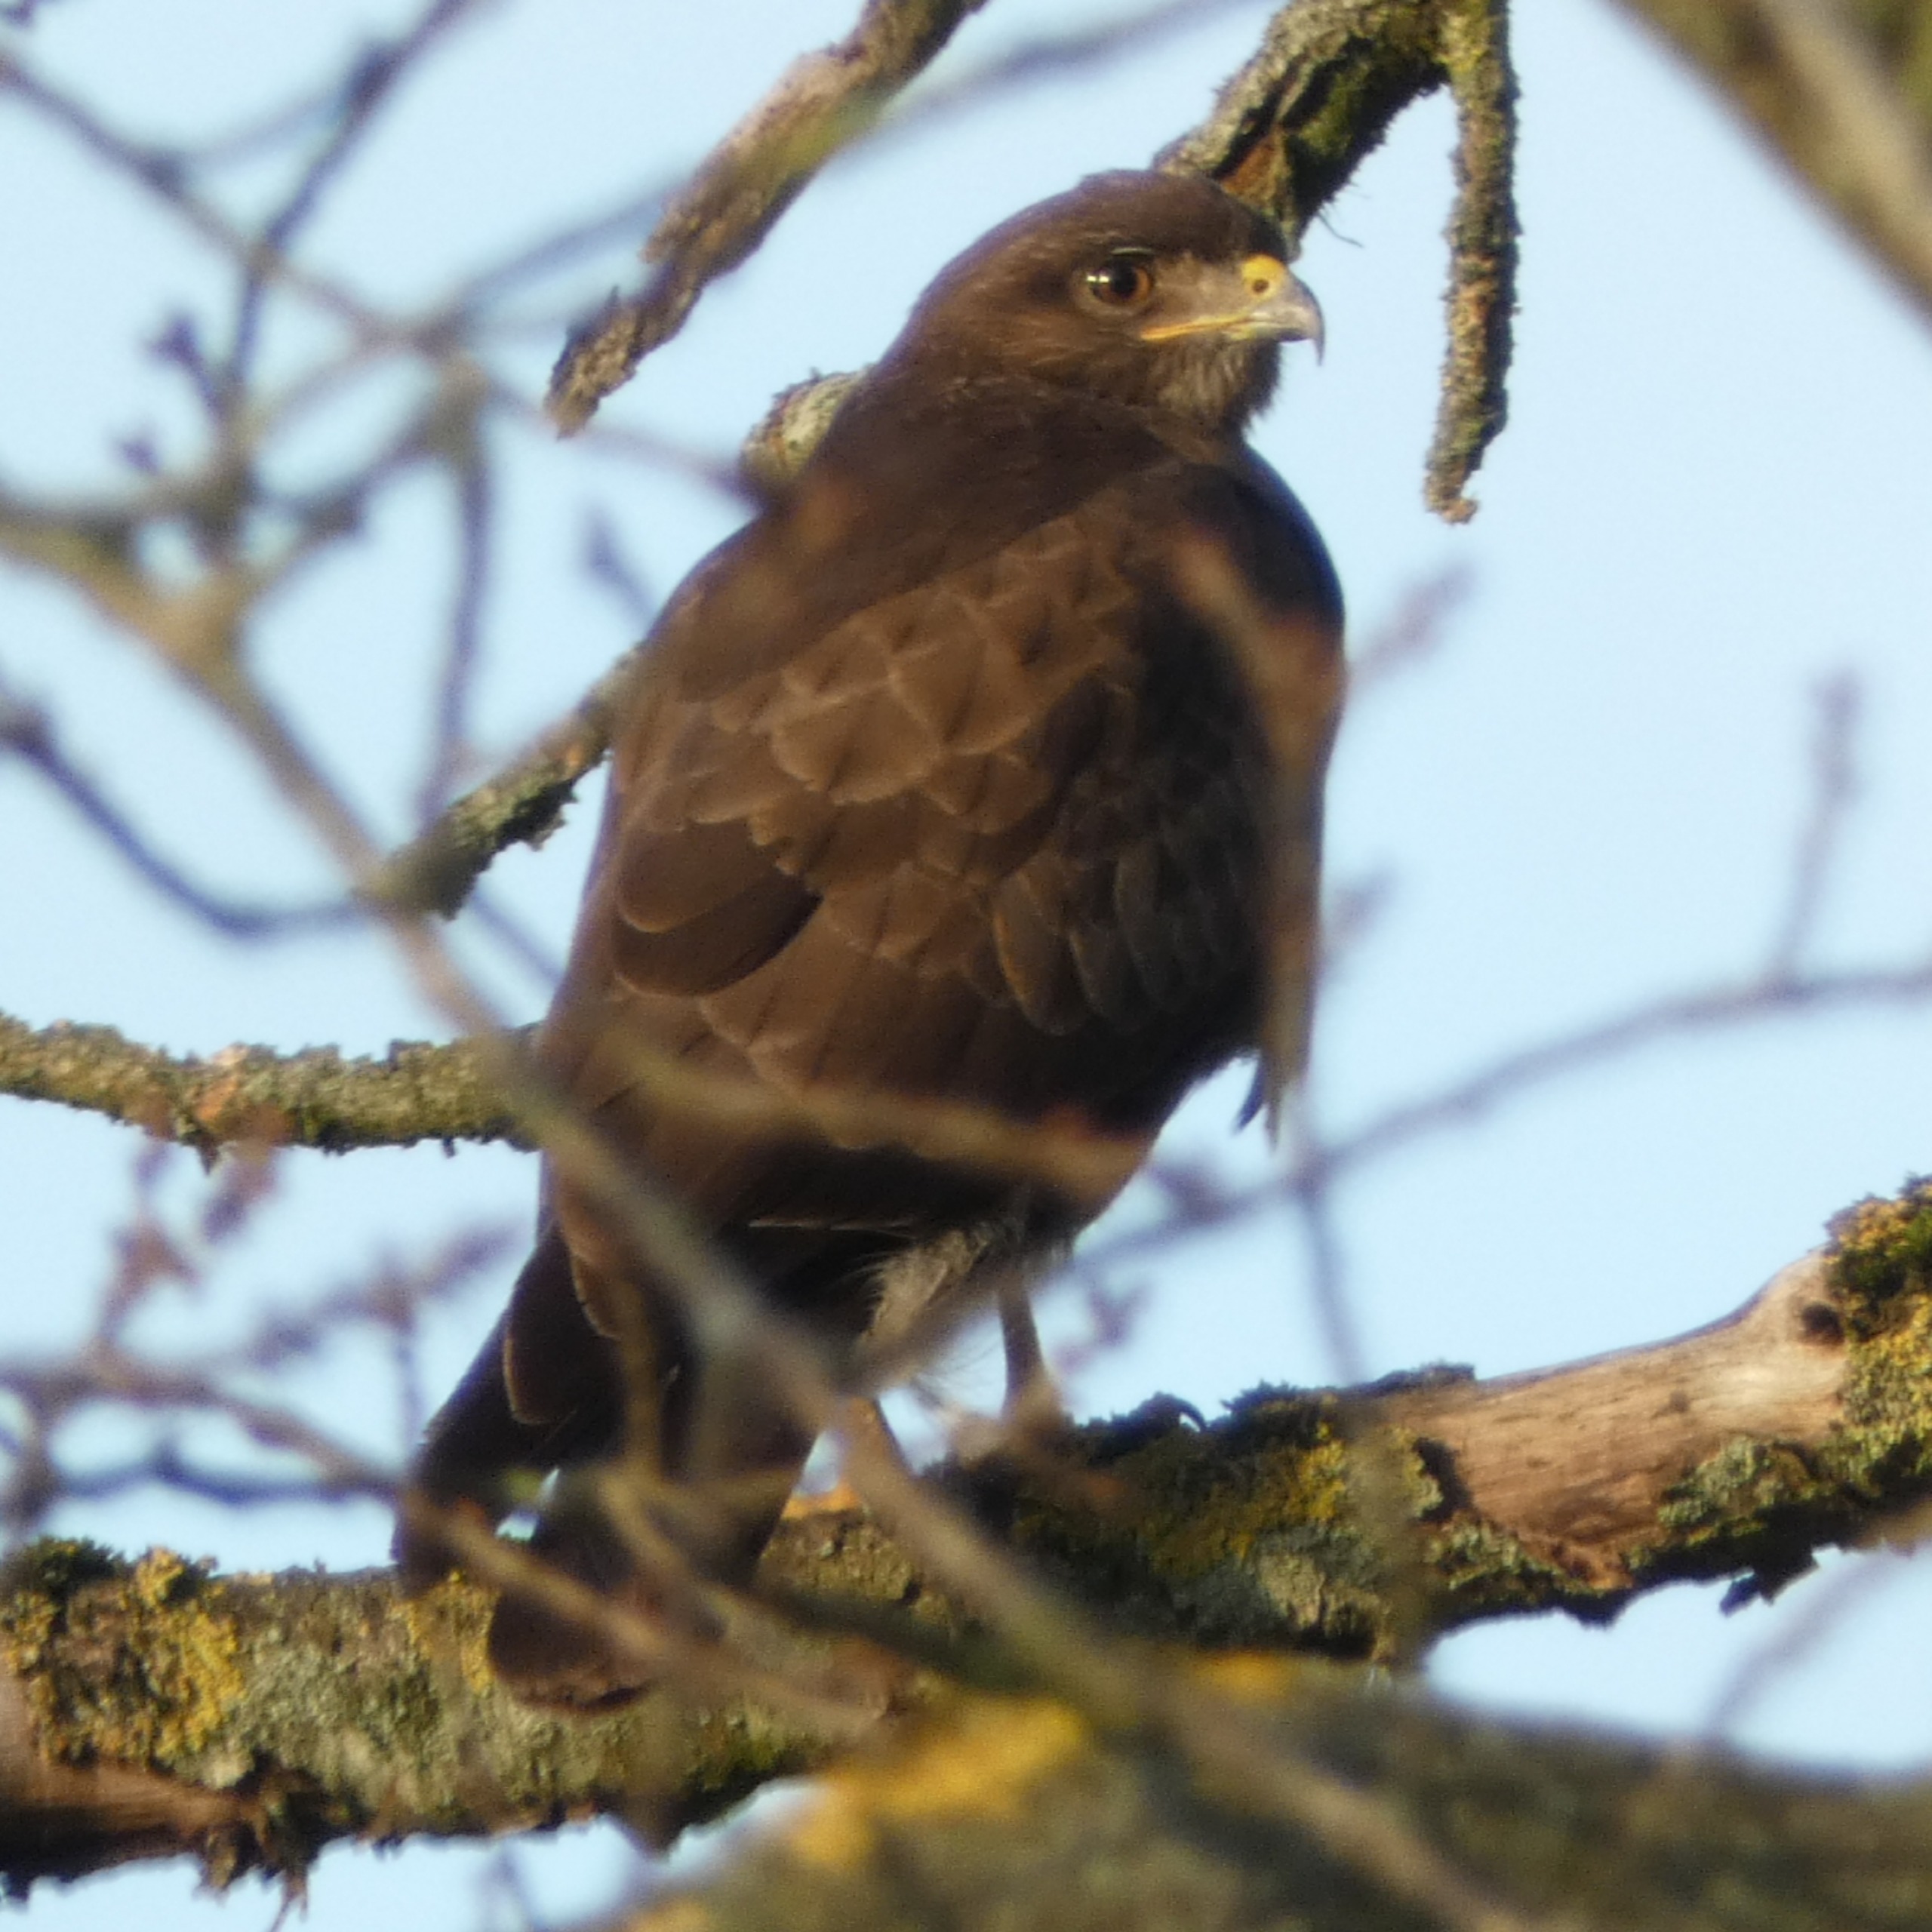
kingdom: Animalia
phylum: Chordata
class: Aves
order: Accipitriformes
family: Accipitridae
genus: Buteo
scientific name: Buteo buteo
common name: Musvåge
